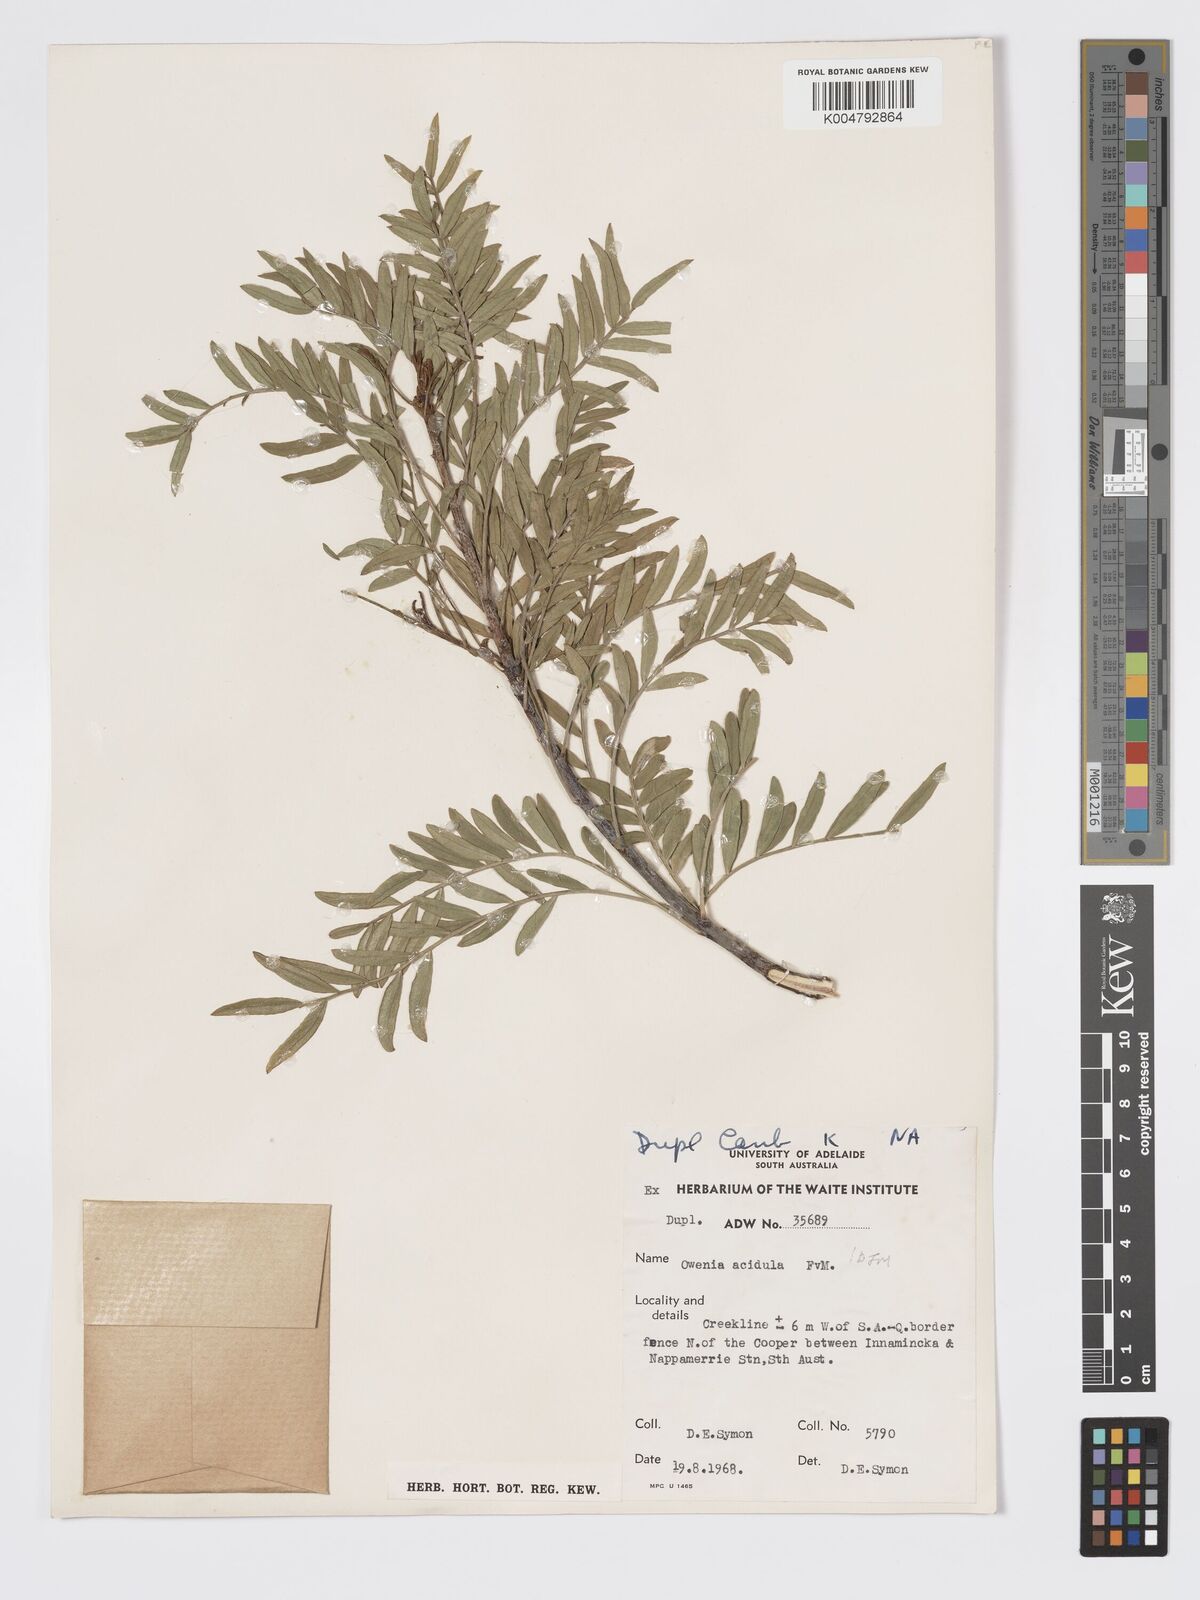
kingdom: Plantae
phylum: Tracheophyta
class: Magnoliopsida
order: Sapindales
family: Meliaceae
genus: Owenia
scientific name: Owenia acidula
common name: Tulipwood
